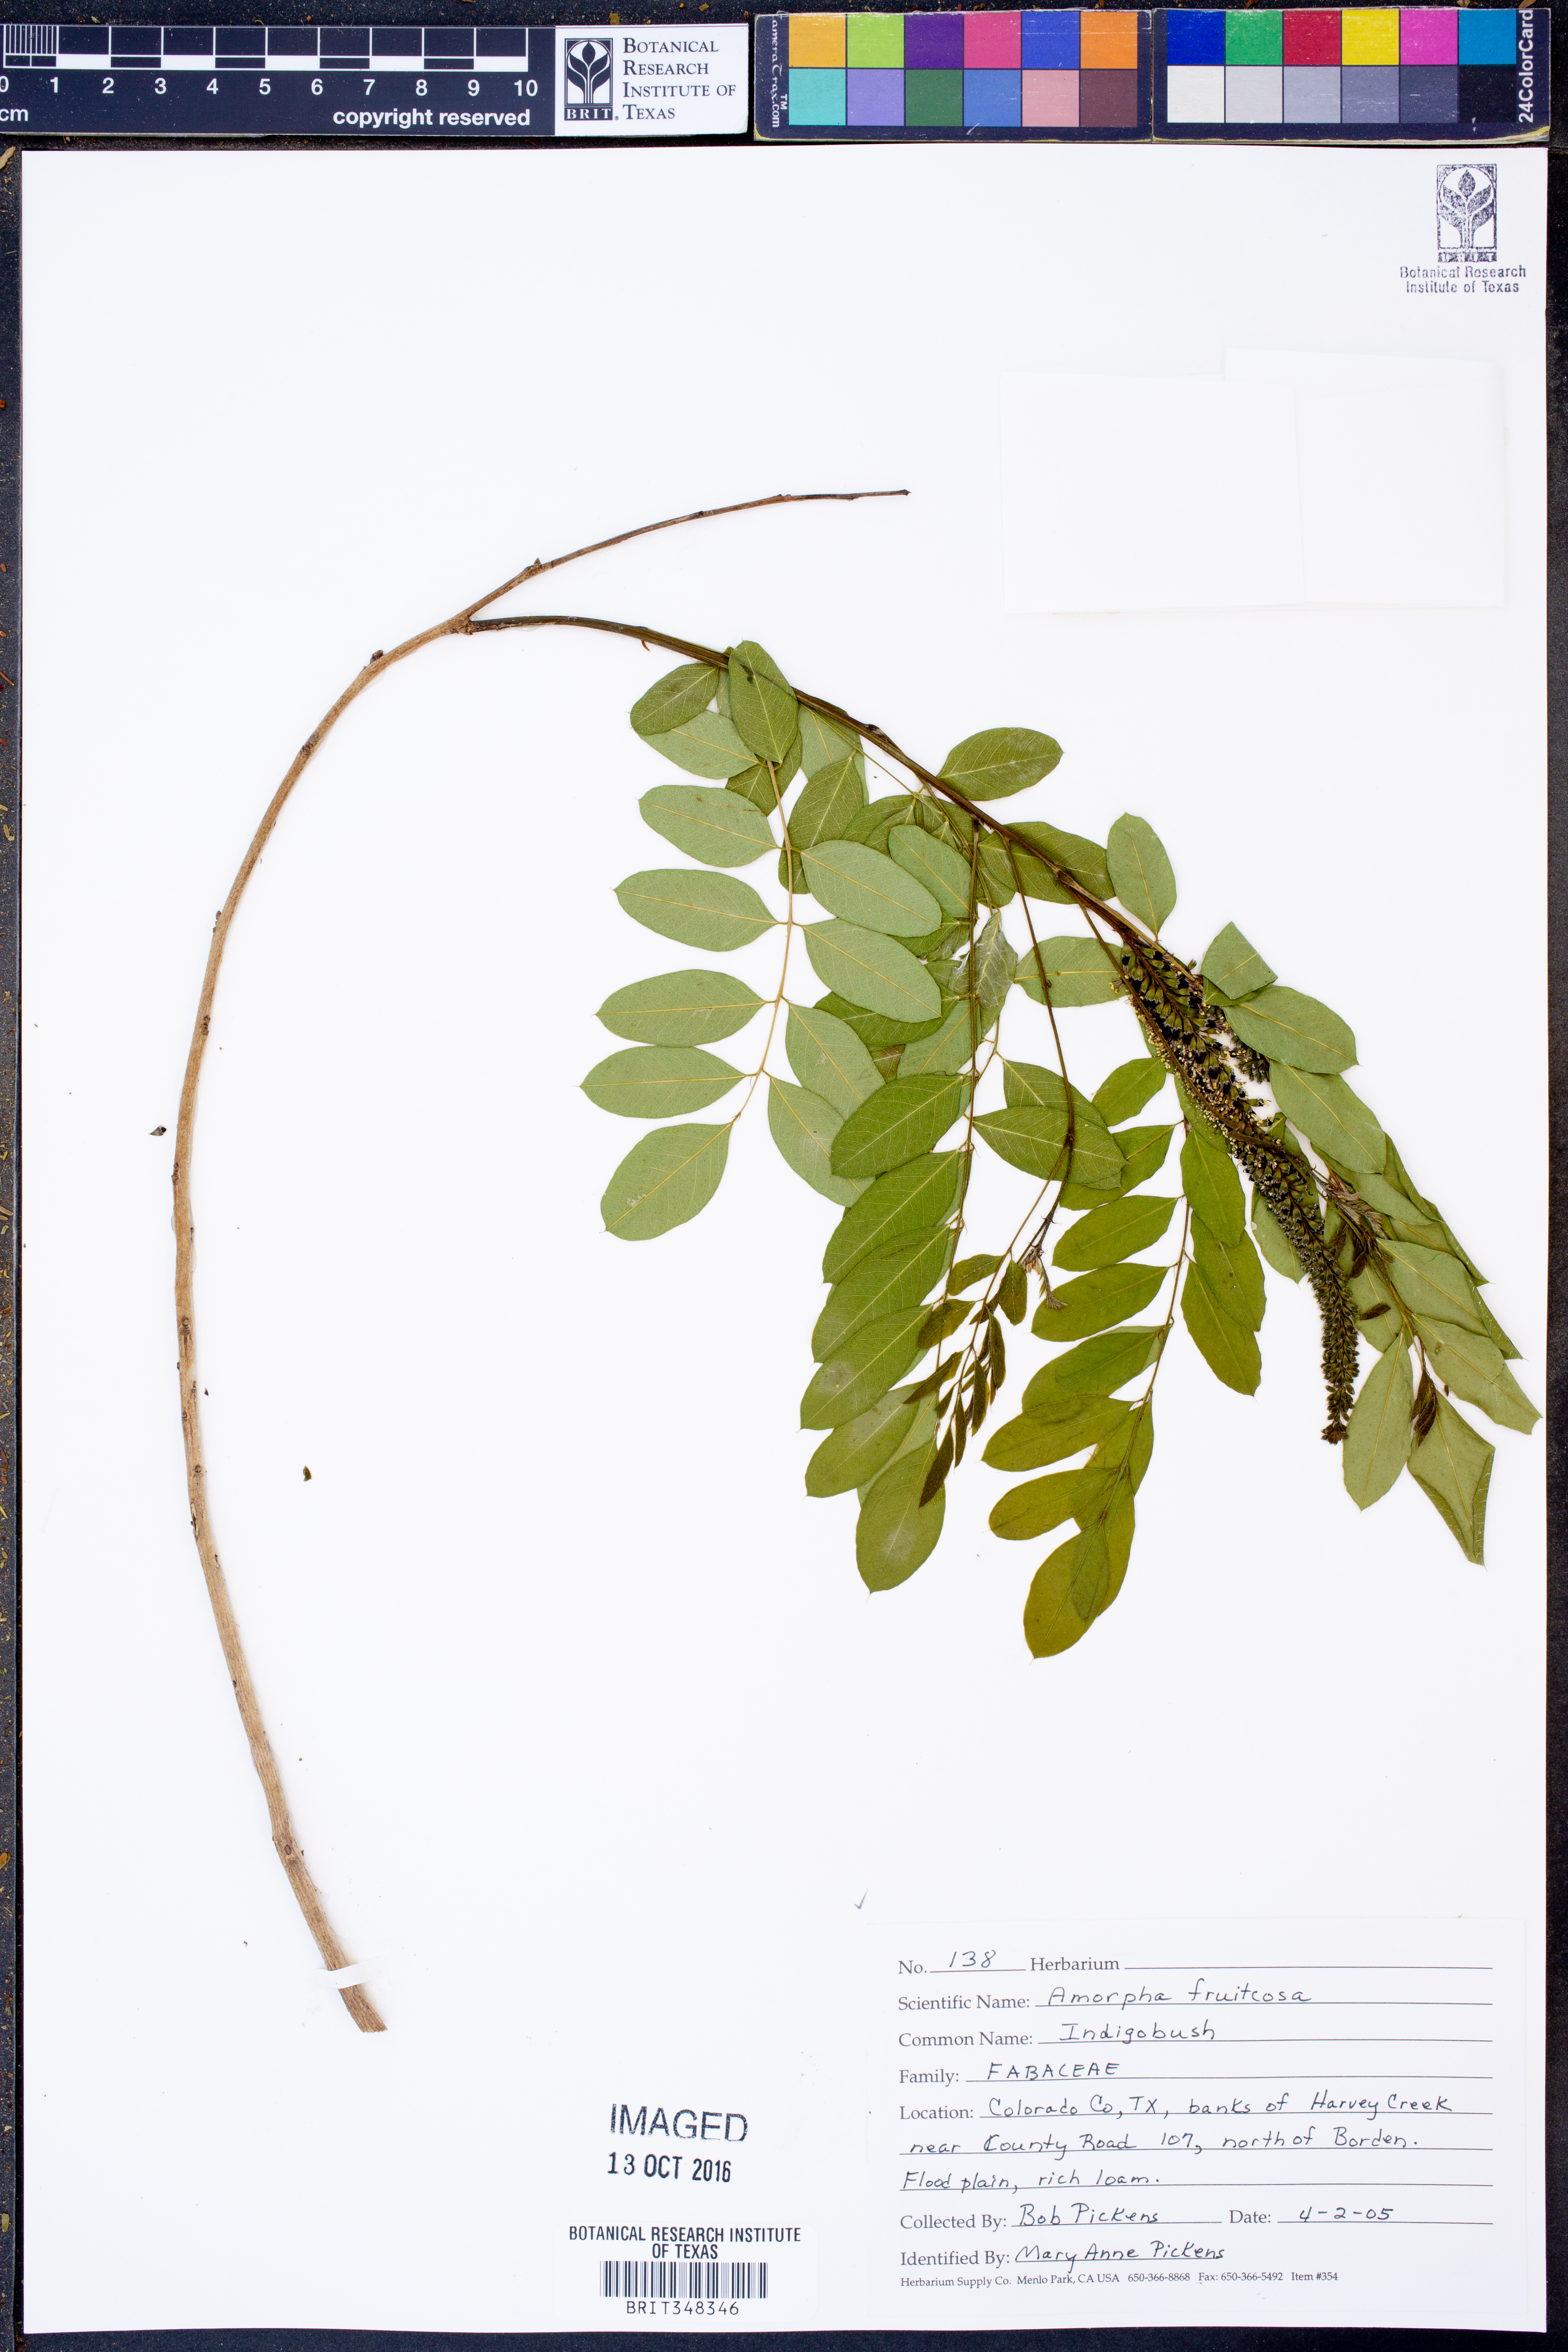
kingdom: Plantae
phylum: Tracheophyta
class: Magnoliopsida
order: Fabales
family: Fabaceae
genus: Amorpha
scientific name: Amorpha fruticosa
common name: False indigo
